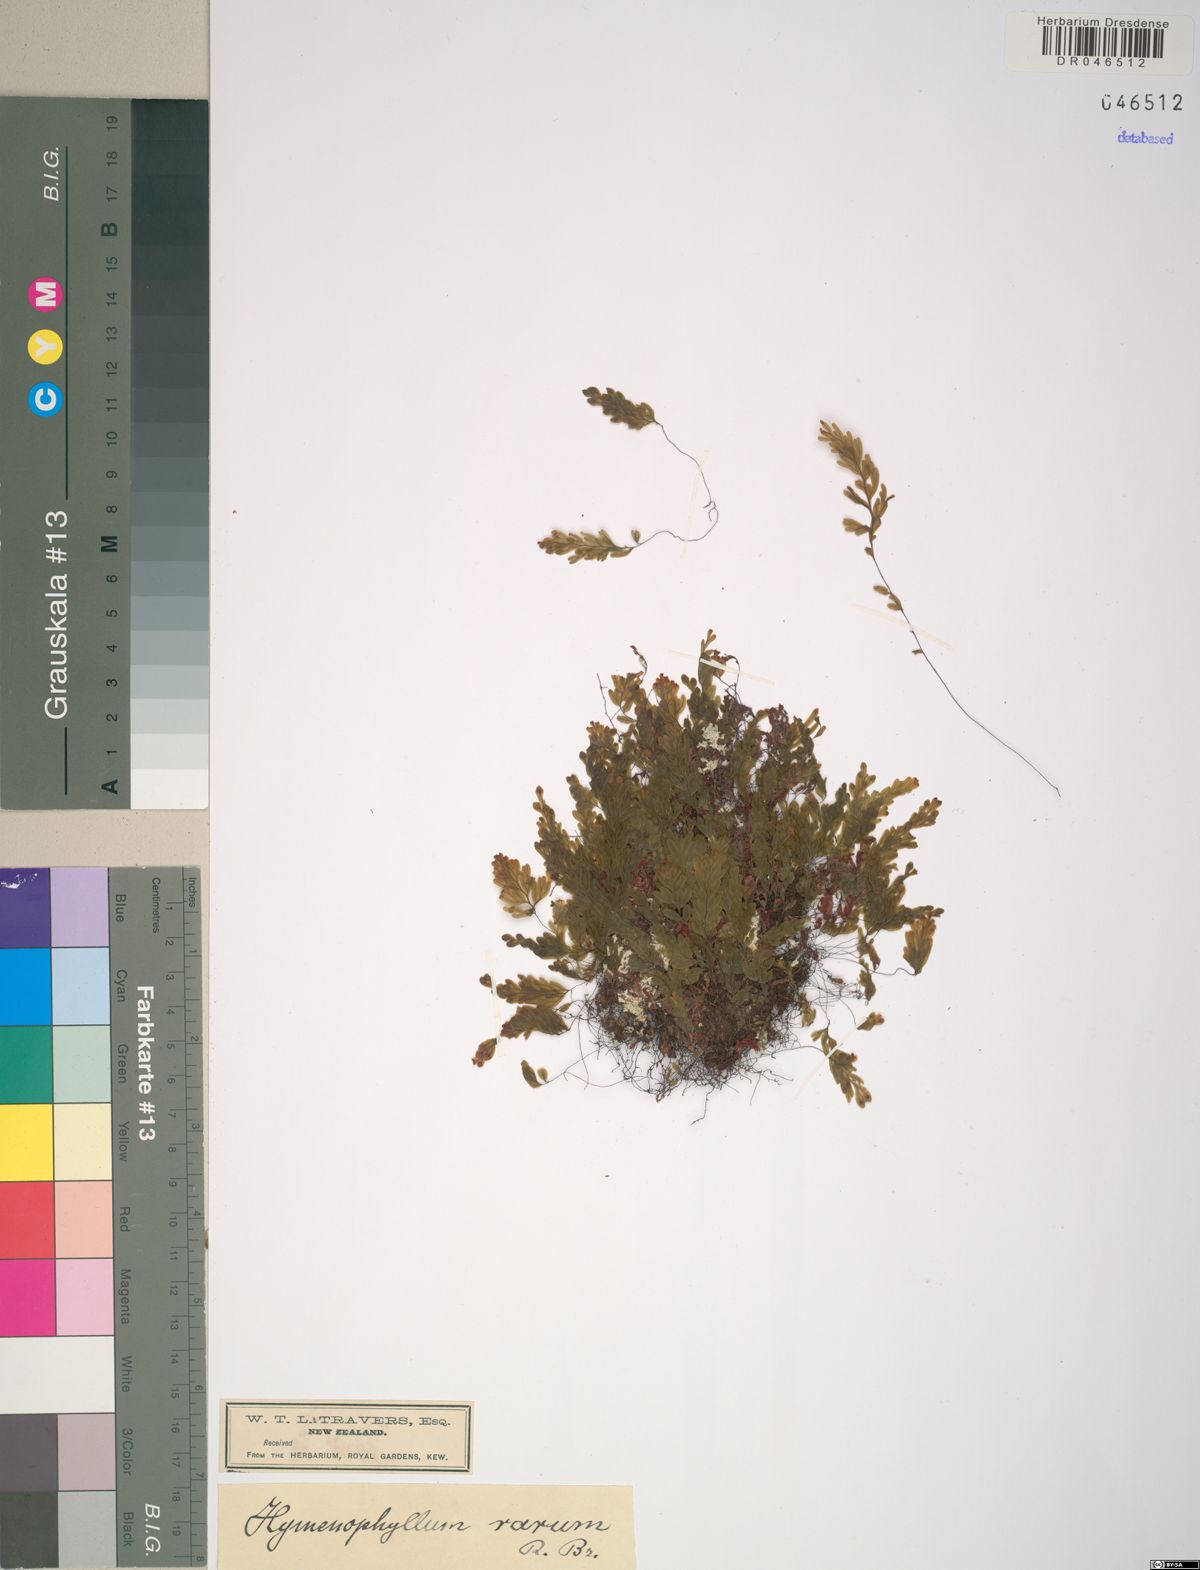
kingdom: Plantae
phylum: Tracheophyta
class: Polypodiopsida
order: Hymenophyllales
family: Hymenophyllaceae
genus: Hymenophyllum
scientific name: Hymenophyllum rarum
